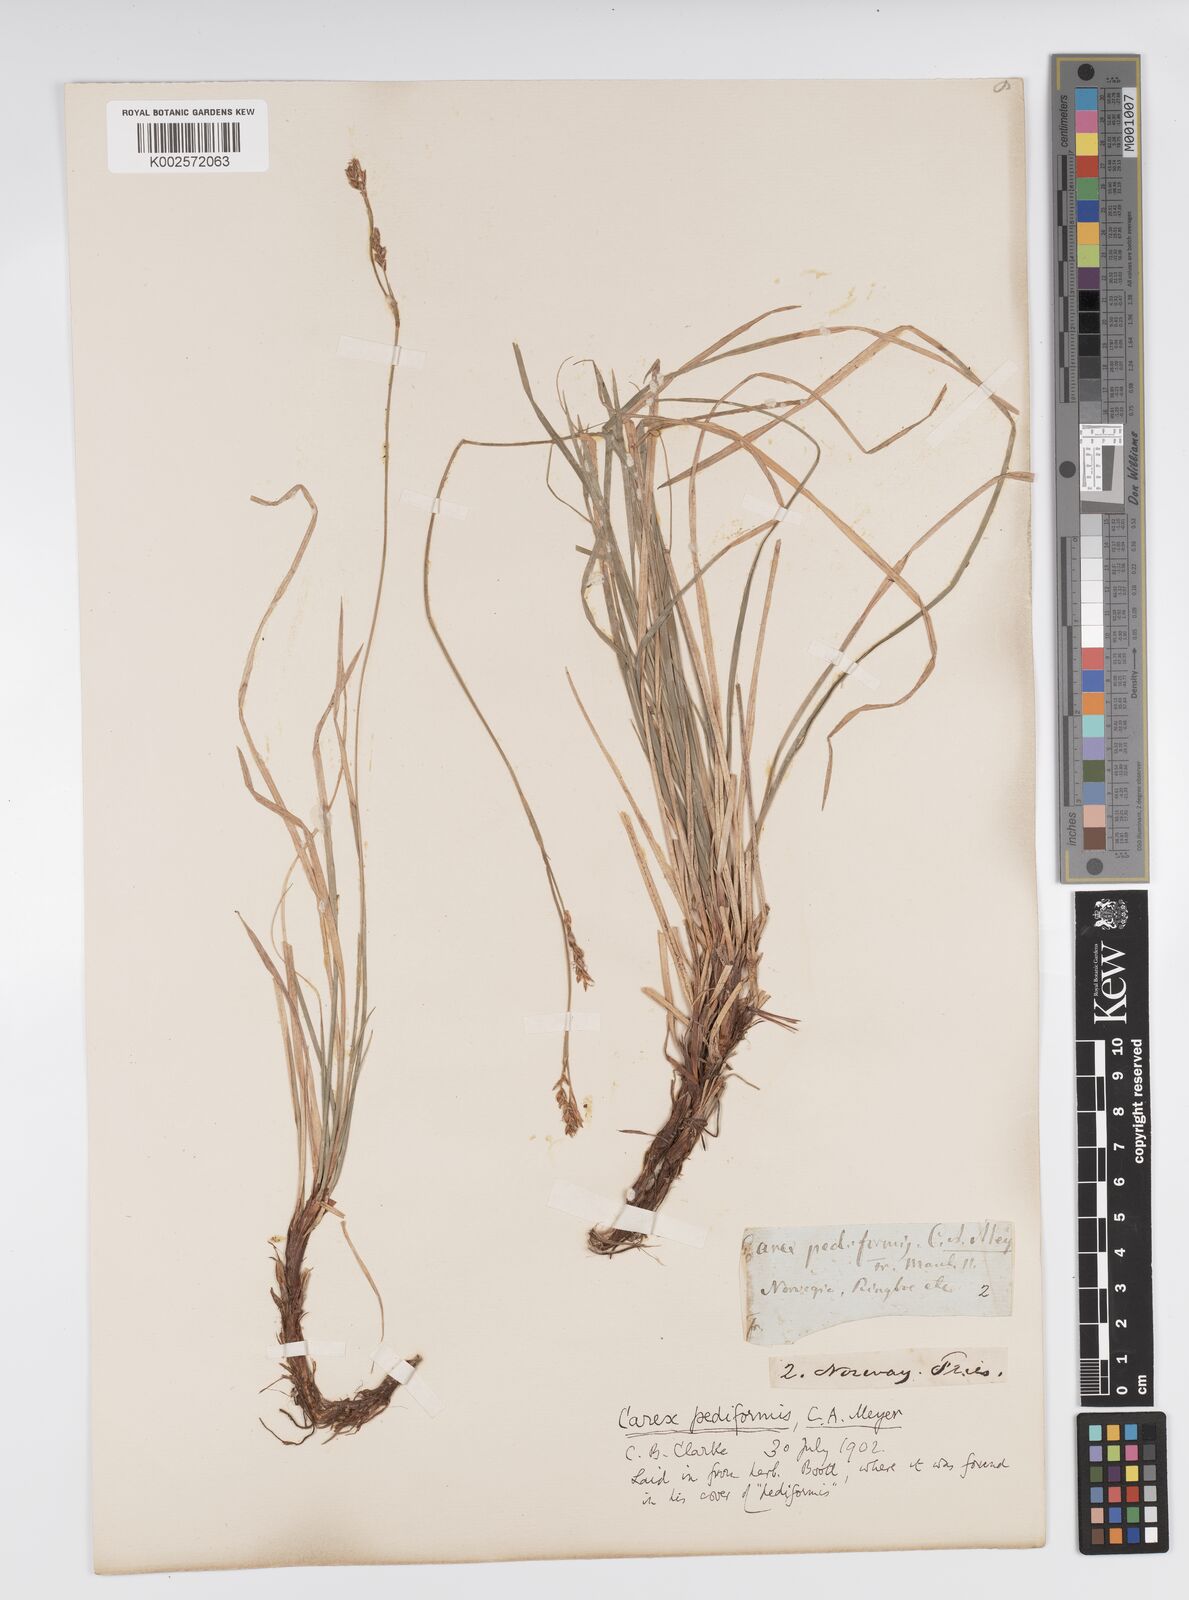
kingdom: Plantae
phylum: Tracheophyta
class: Liliopsida
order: Poales
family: Cyperaceae
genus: Carex
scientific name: Carex pediformis
